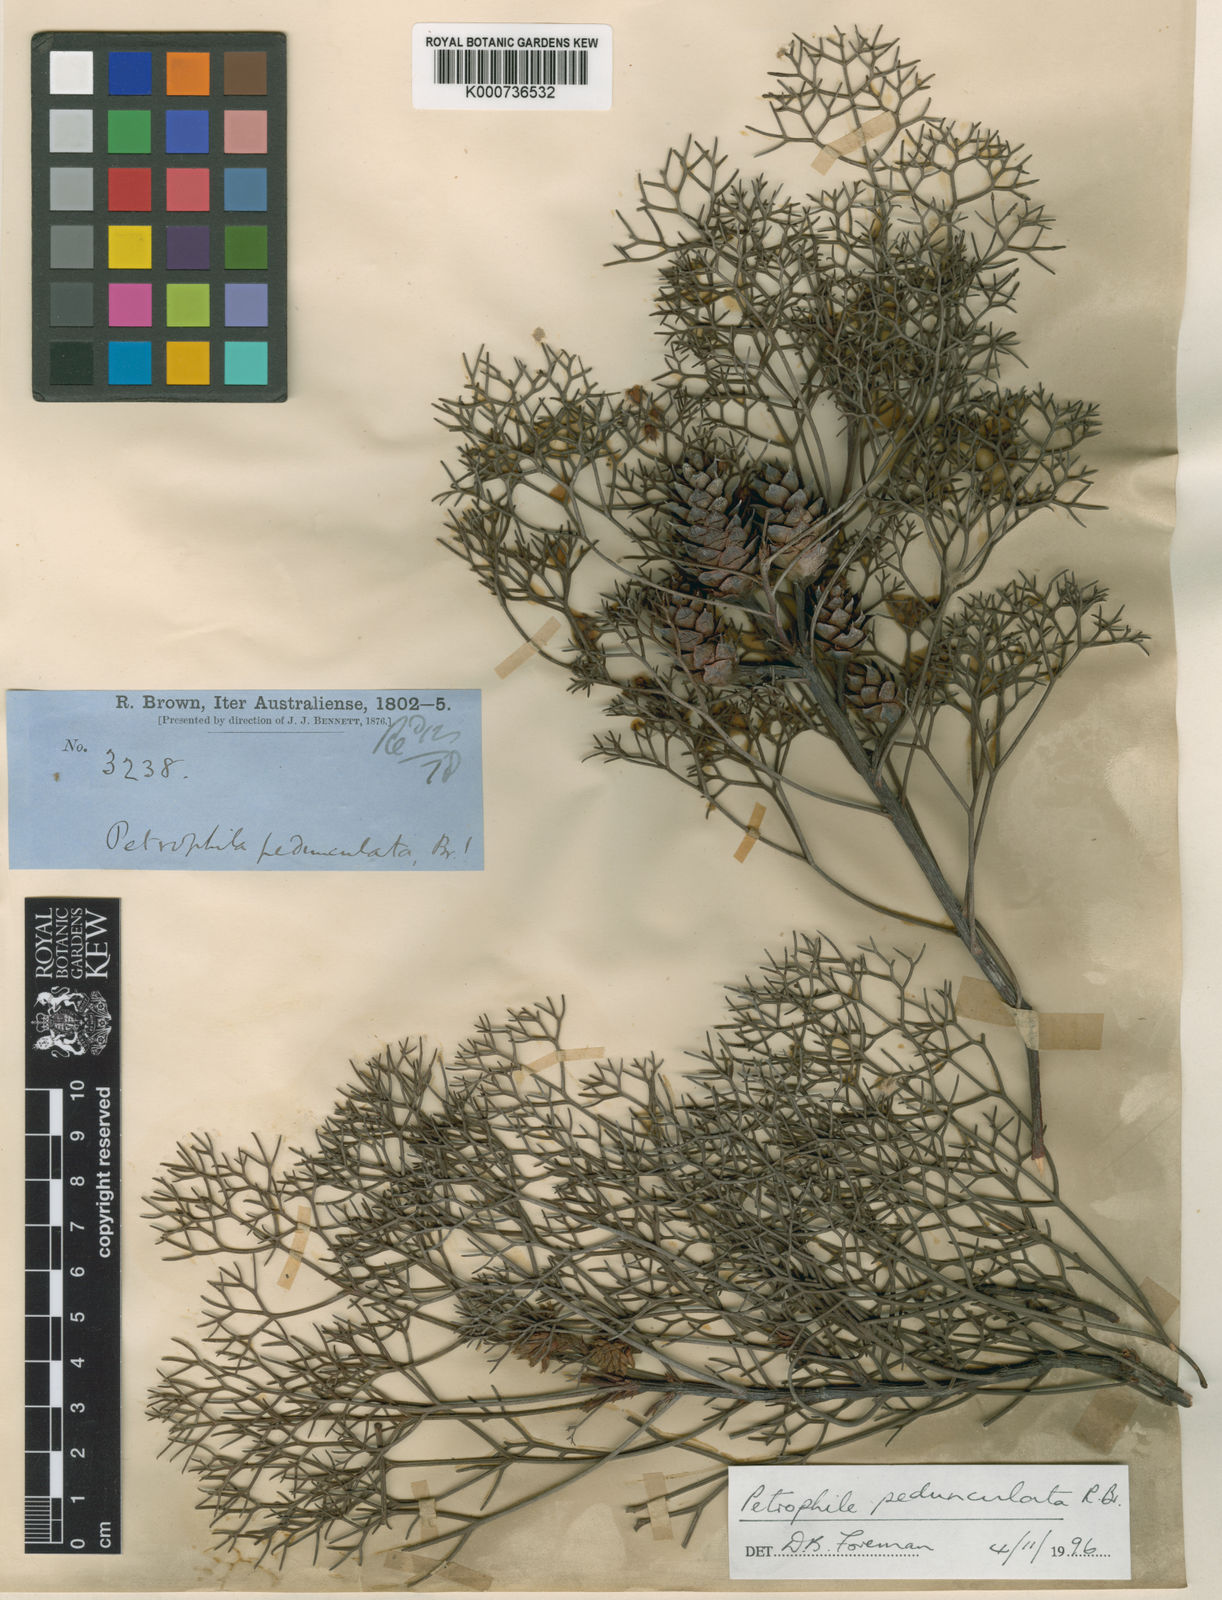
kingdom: Plantae
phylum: Tracheophyta
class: Magnoliopsida
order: Proteales
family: Proteaceae
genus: Petrophile
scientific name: Petrophile
